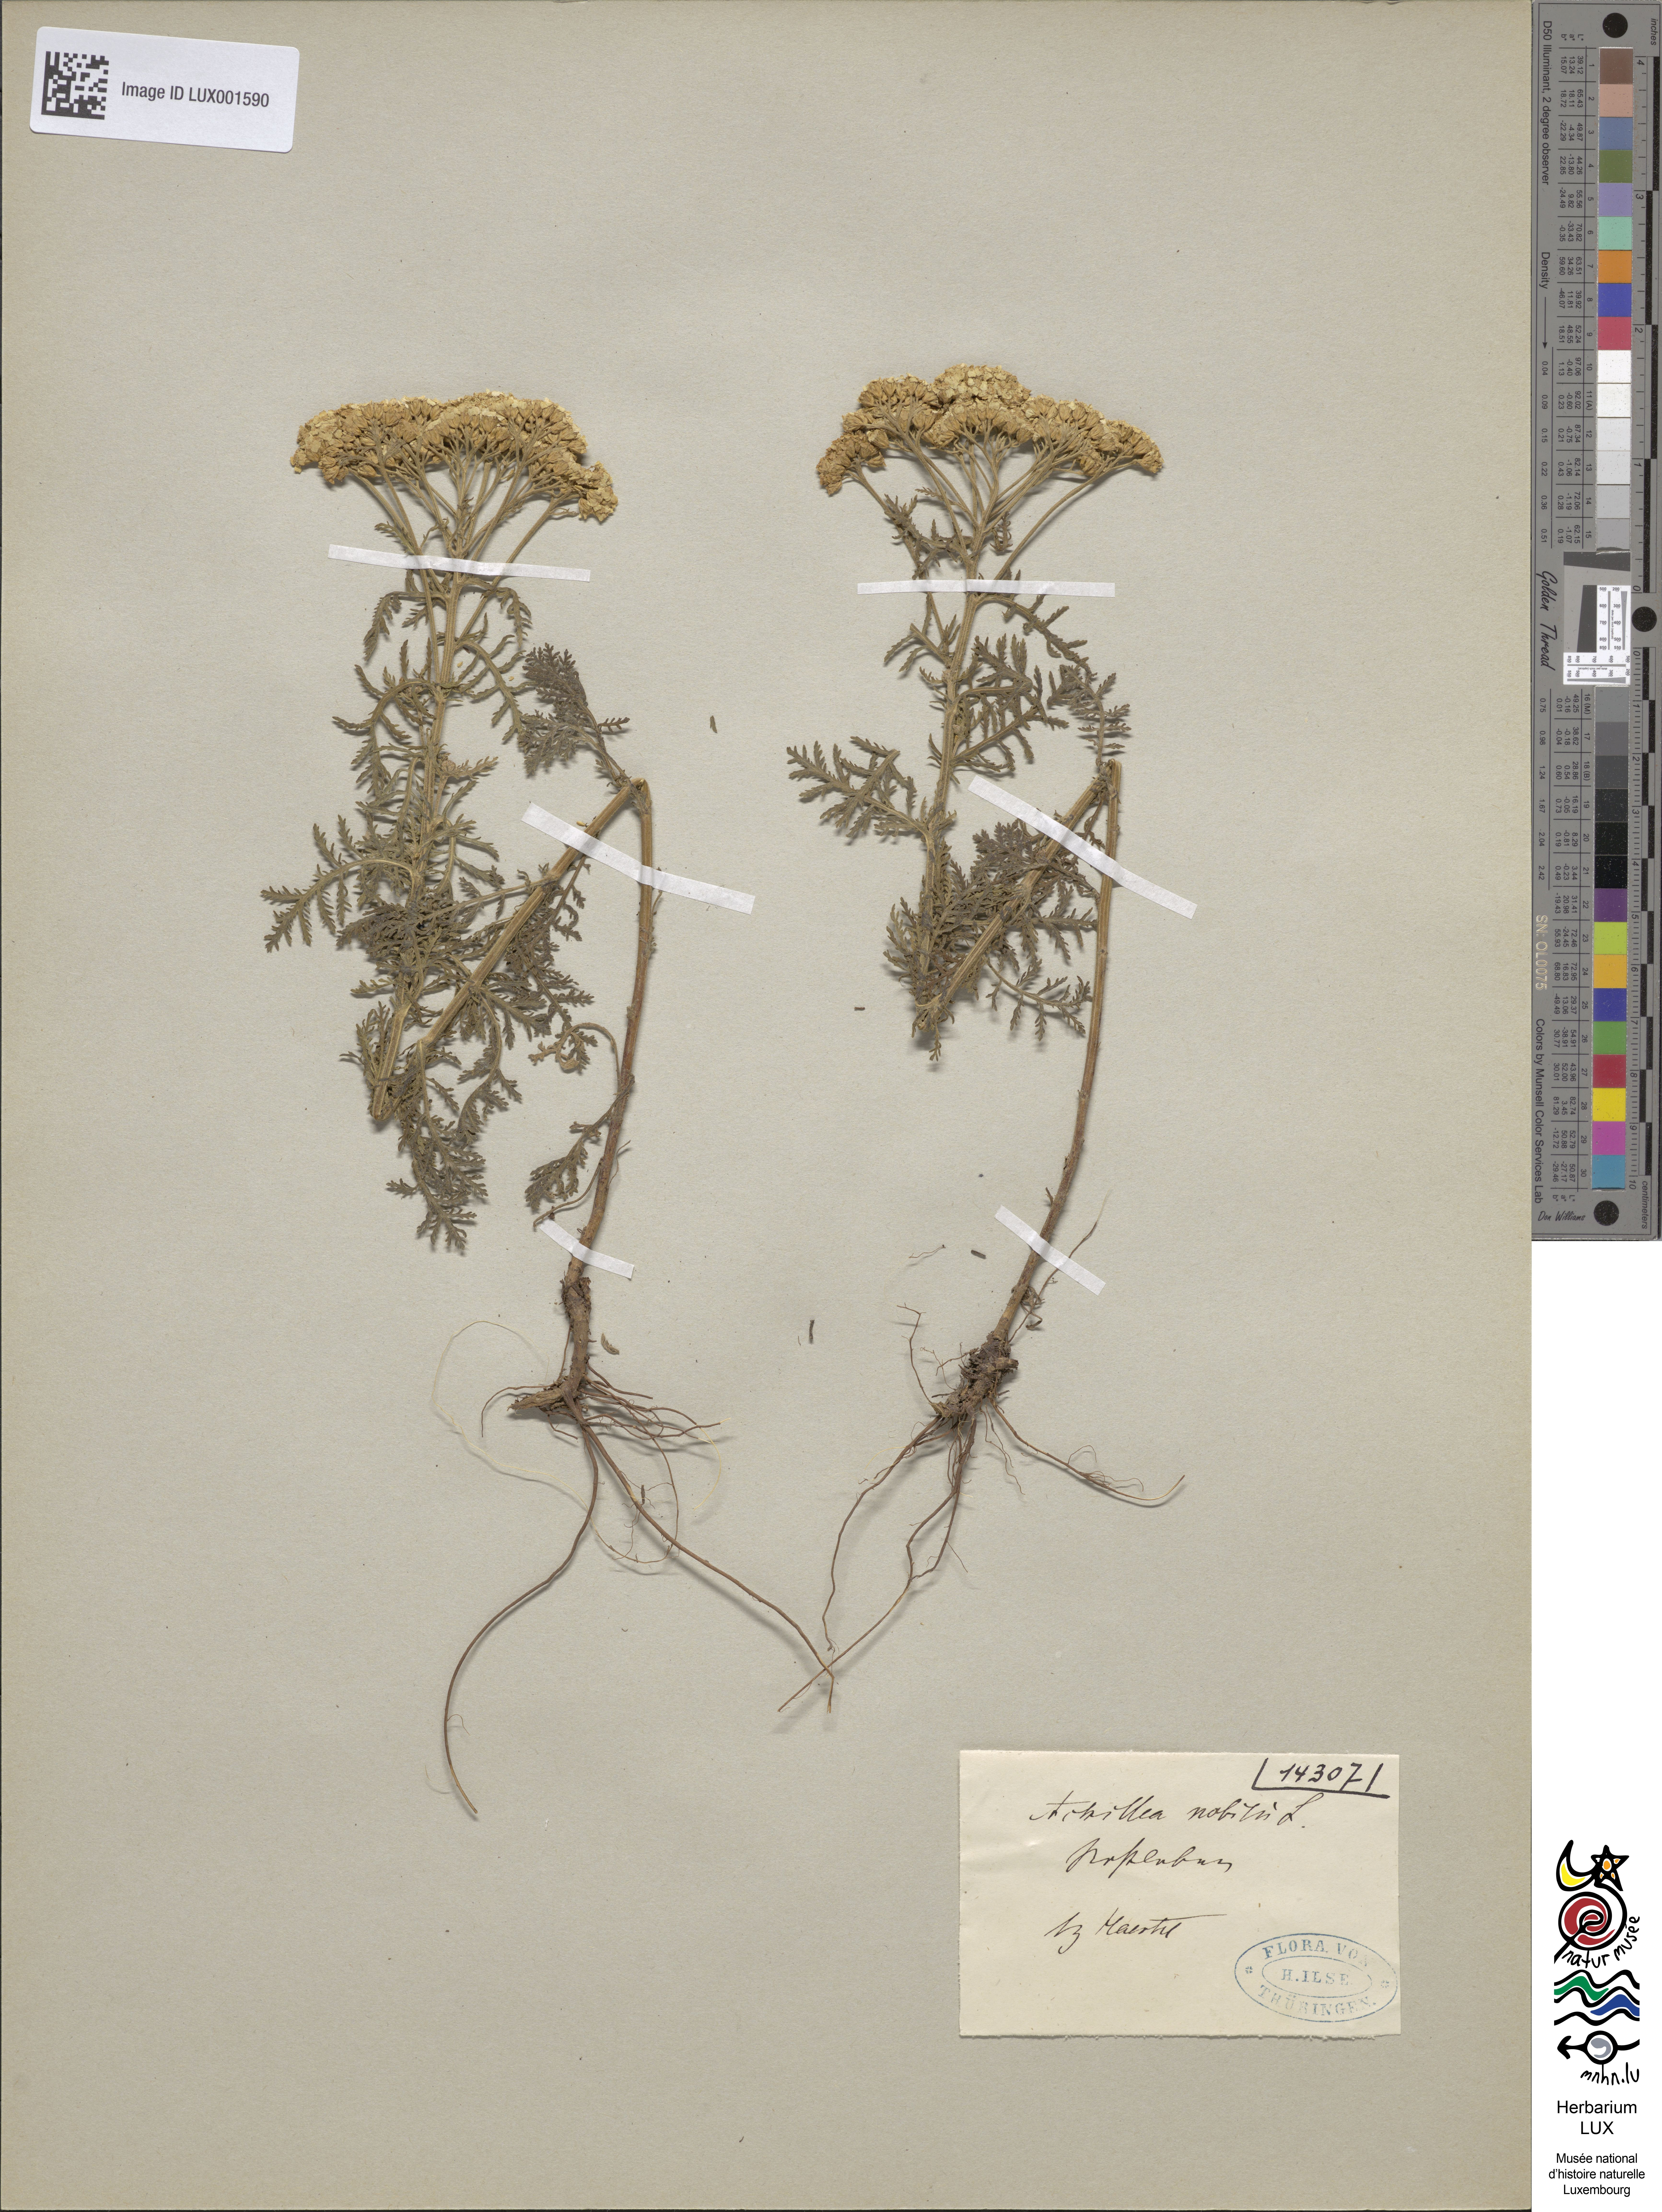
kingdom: Plantae
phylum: Tracheophyta
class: Magnoliopsida
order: Asterales
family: Asteraceae
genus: Achillea
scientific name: Achillea nobilis
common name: Noble yarrow
